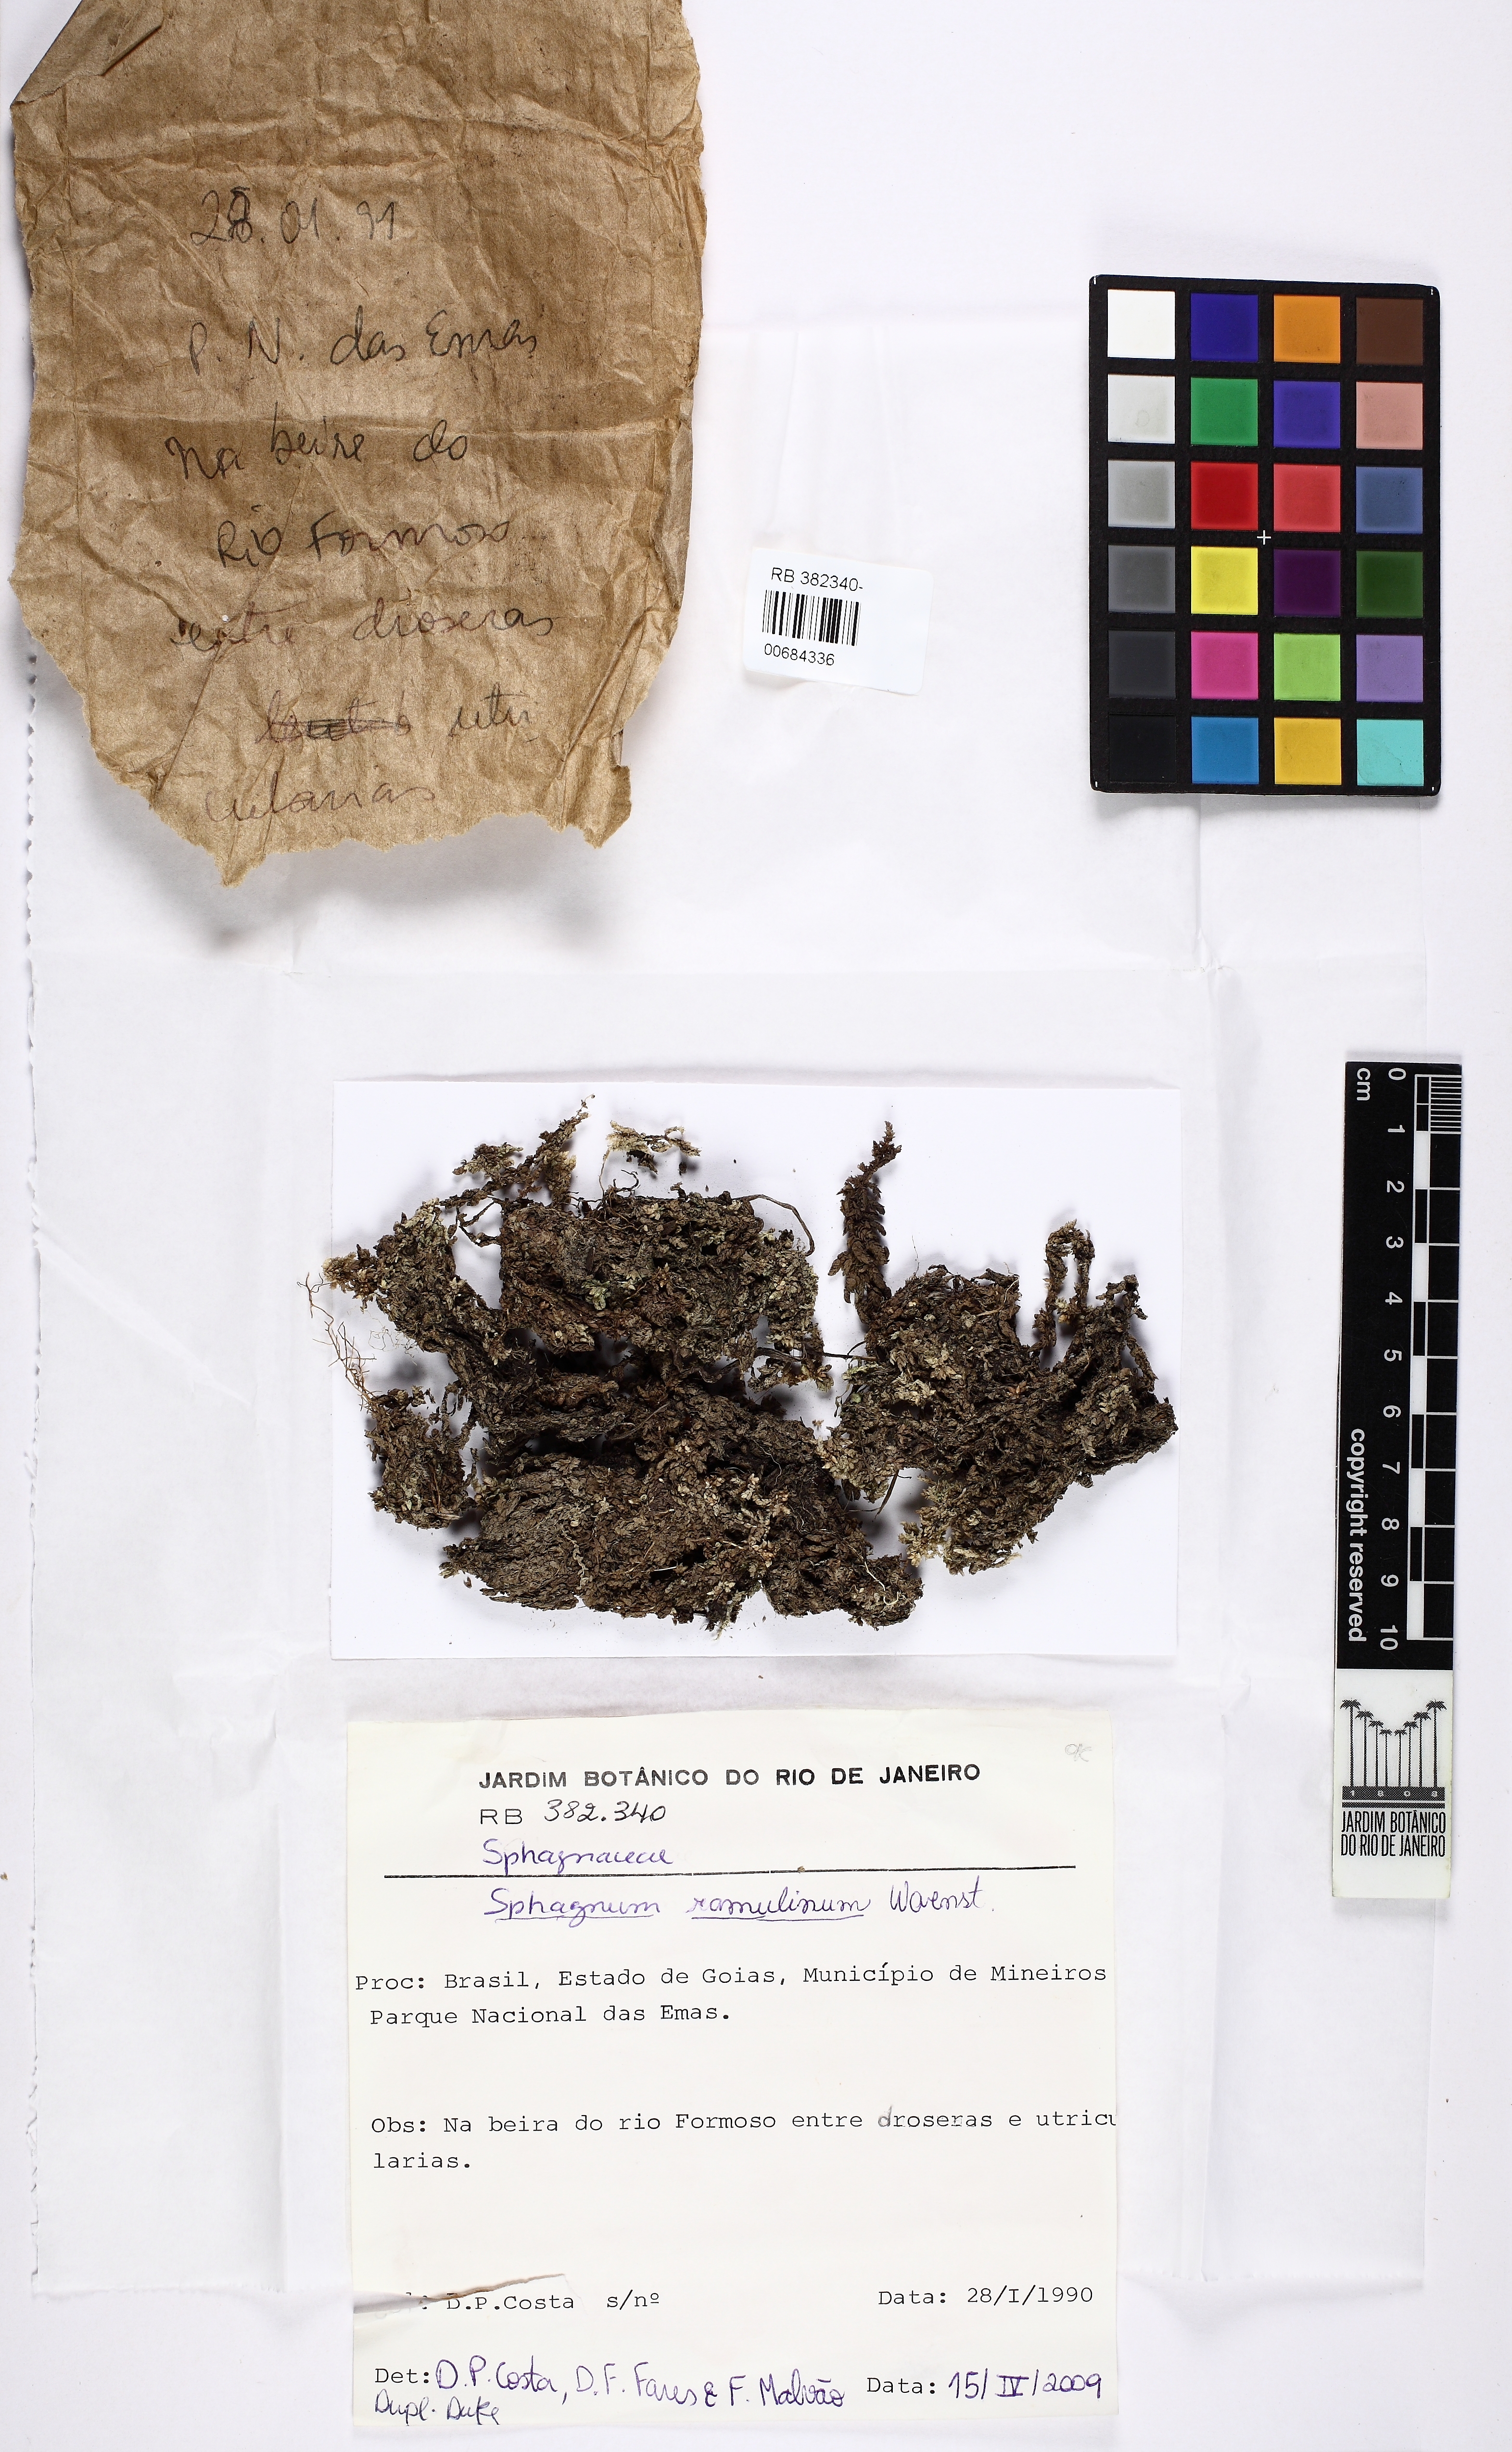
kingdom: Plantae
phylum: Bryophyta
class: Sphagnopsida
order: Sphagnales
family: Sphagnaceae
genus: Sphagnum
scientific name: Sphagnum ramulinum
